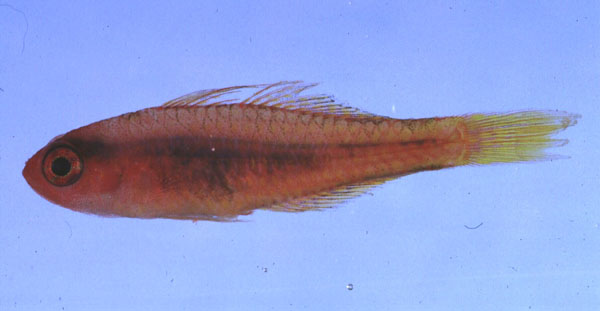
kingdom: Animalia
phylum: Chordata
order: Perciformes
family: Gobiidae
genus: Trimma
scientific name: Trimma taylori
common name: Cave dwarfgoby
